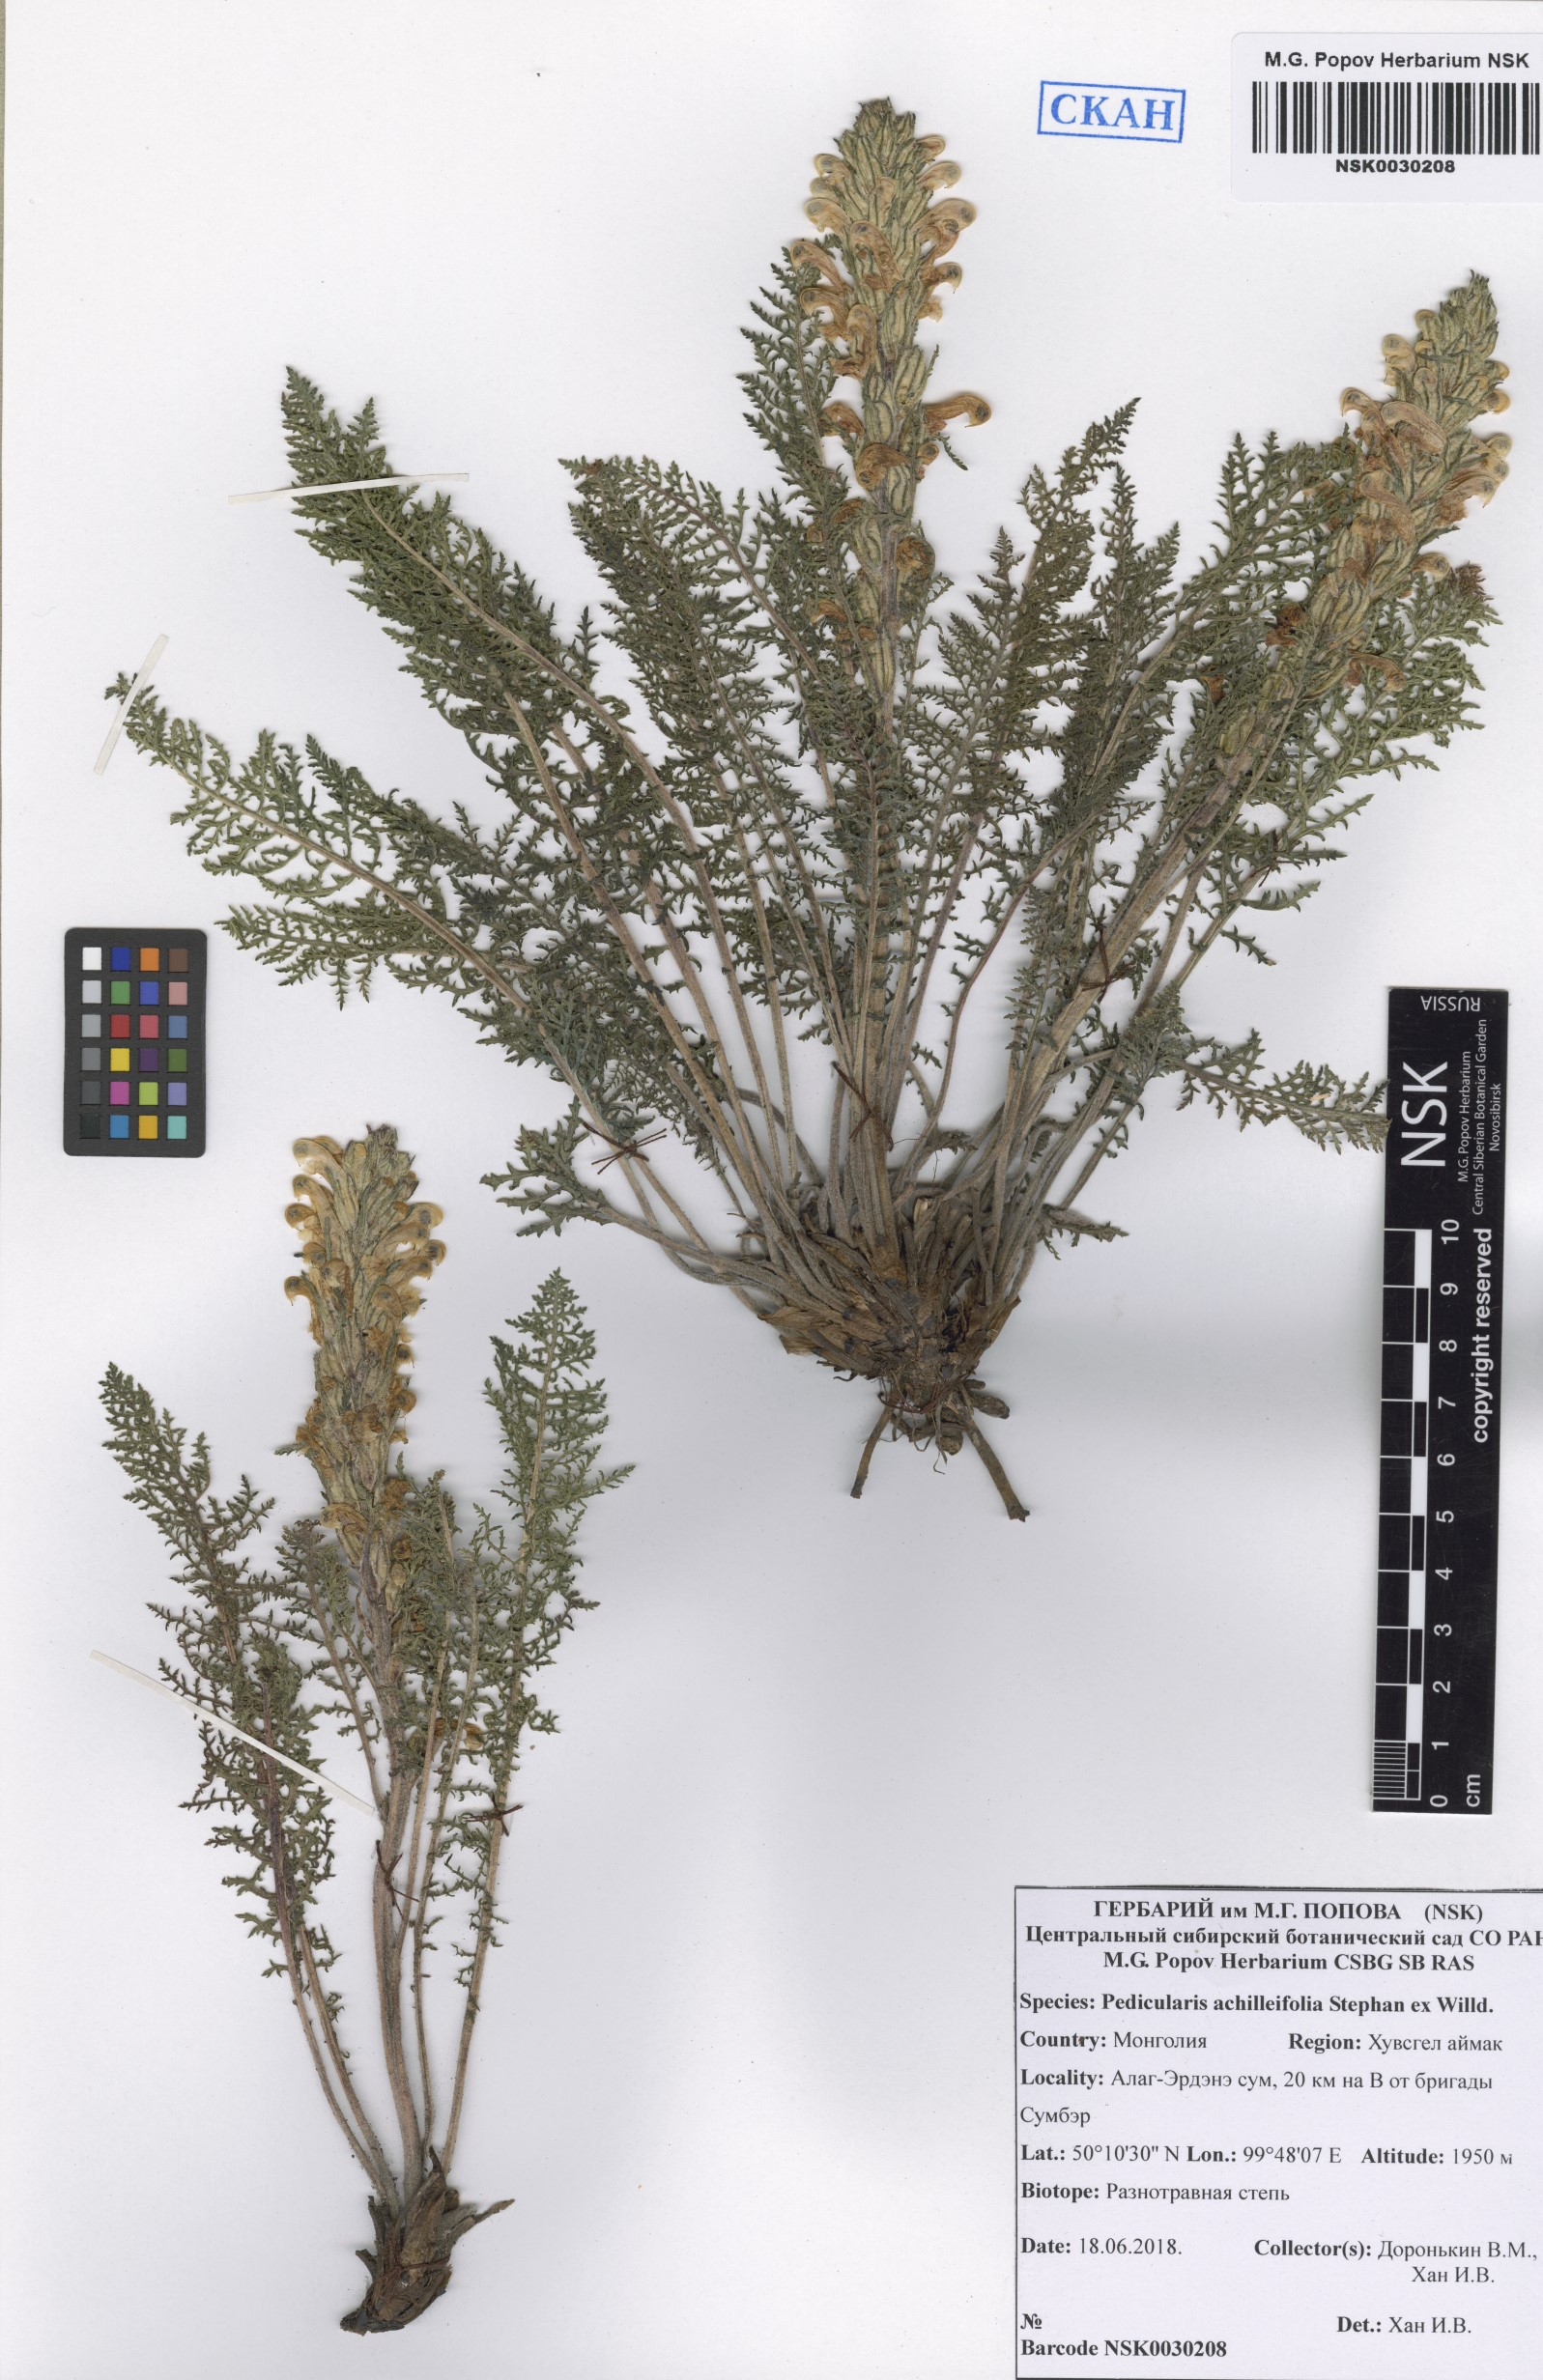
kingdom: Plantae
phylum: Tracheophyta
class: Magnoliopsida
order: Lamiales
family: Orobanchaceae
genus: Pedicularis
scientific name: Pedicularis achilleifolia
